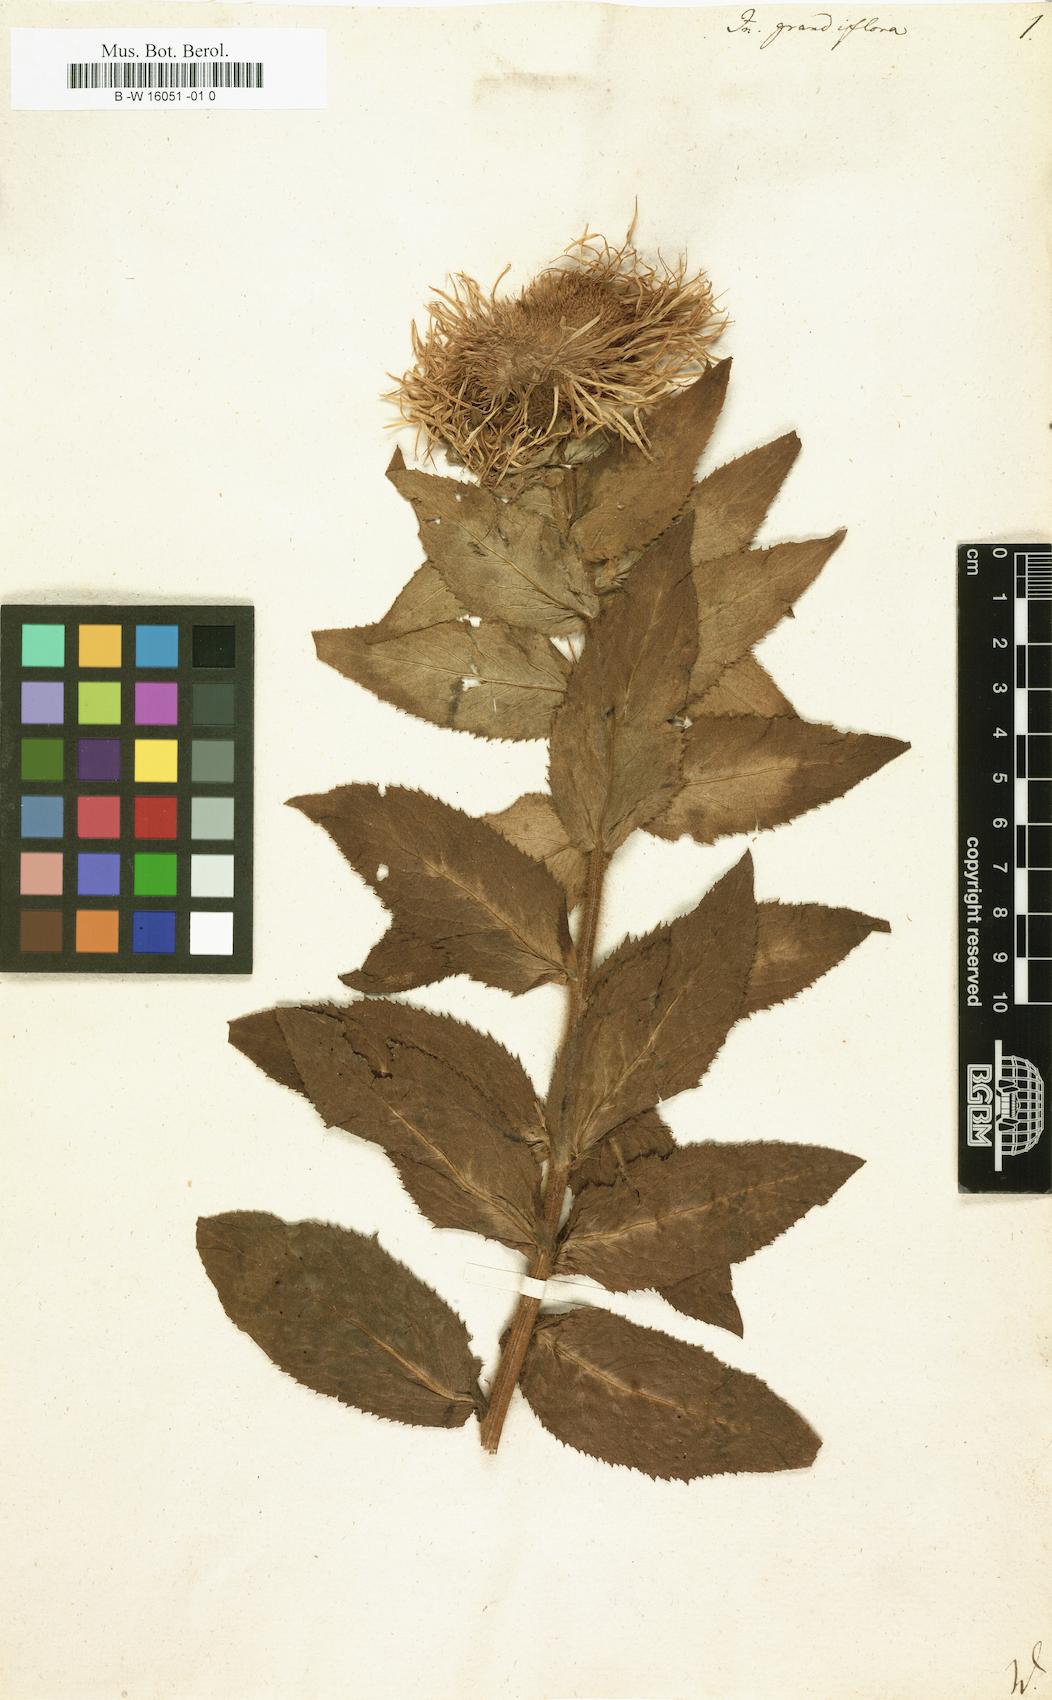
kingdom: Plantae
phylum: Tracheophyta
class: Magnoliopsida
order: Asterales
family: Asteraceae
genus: Inula
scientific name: Inula grandiflora
